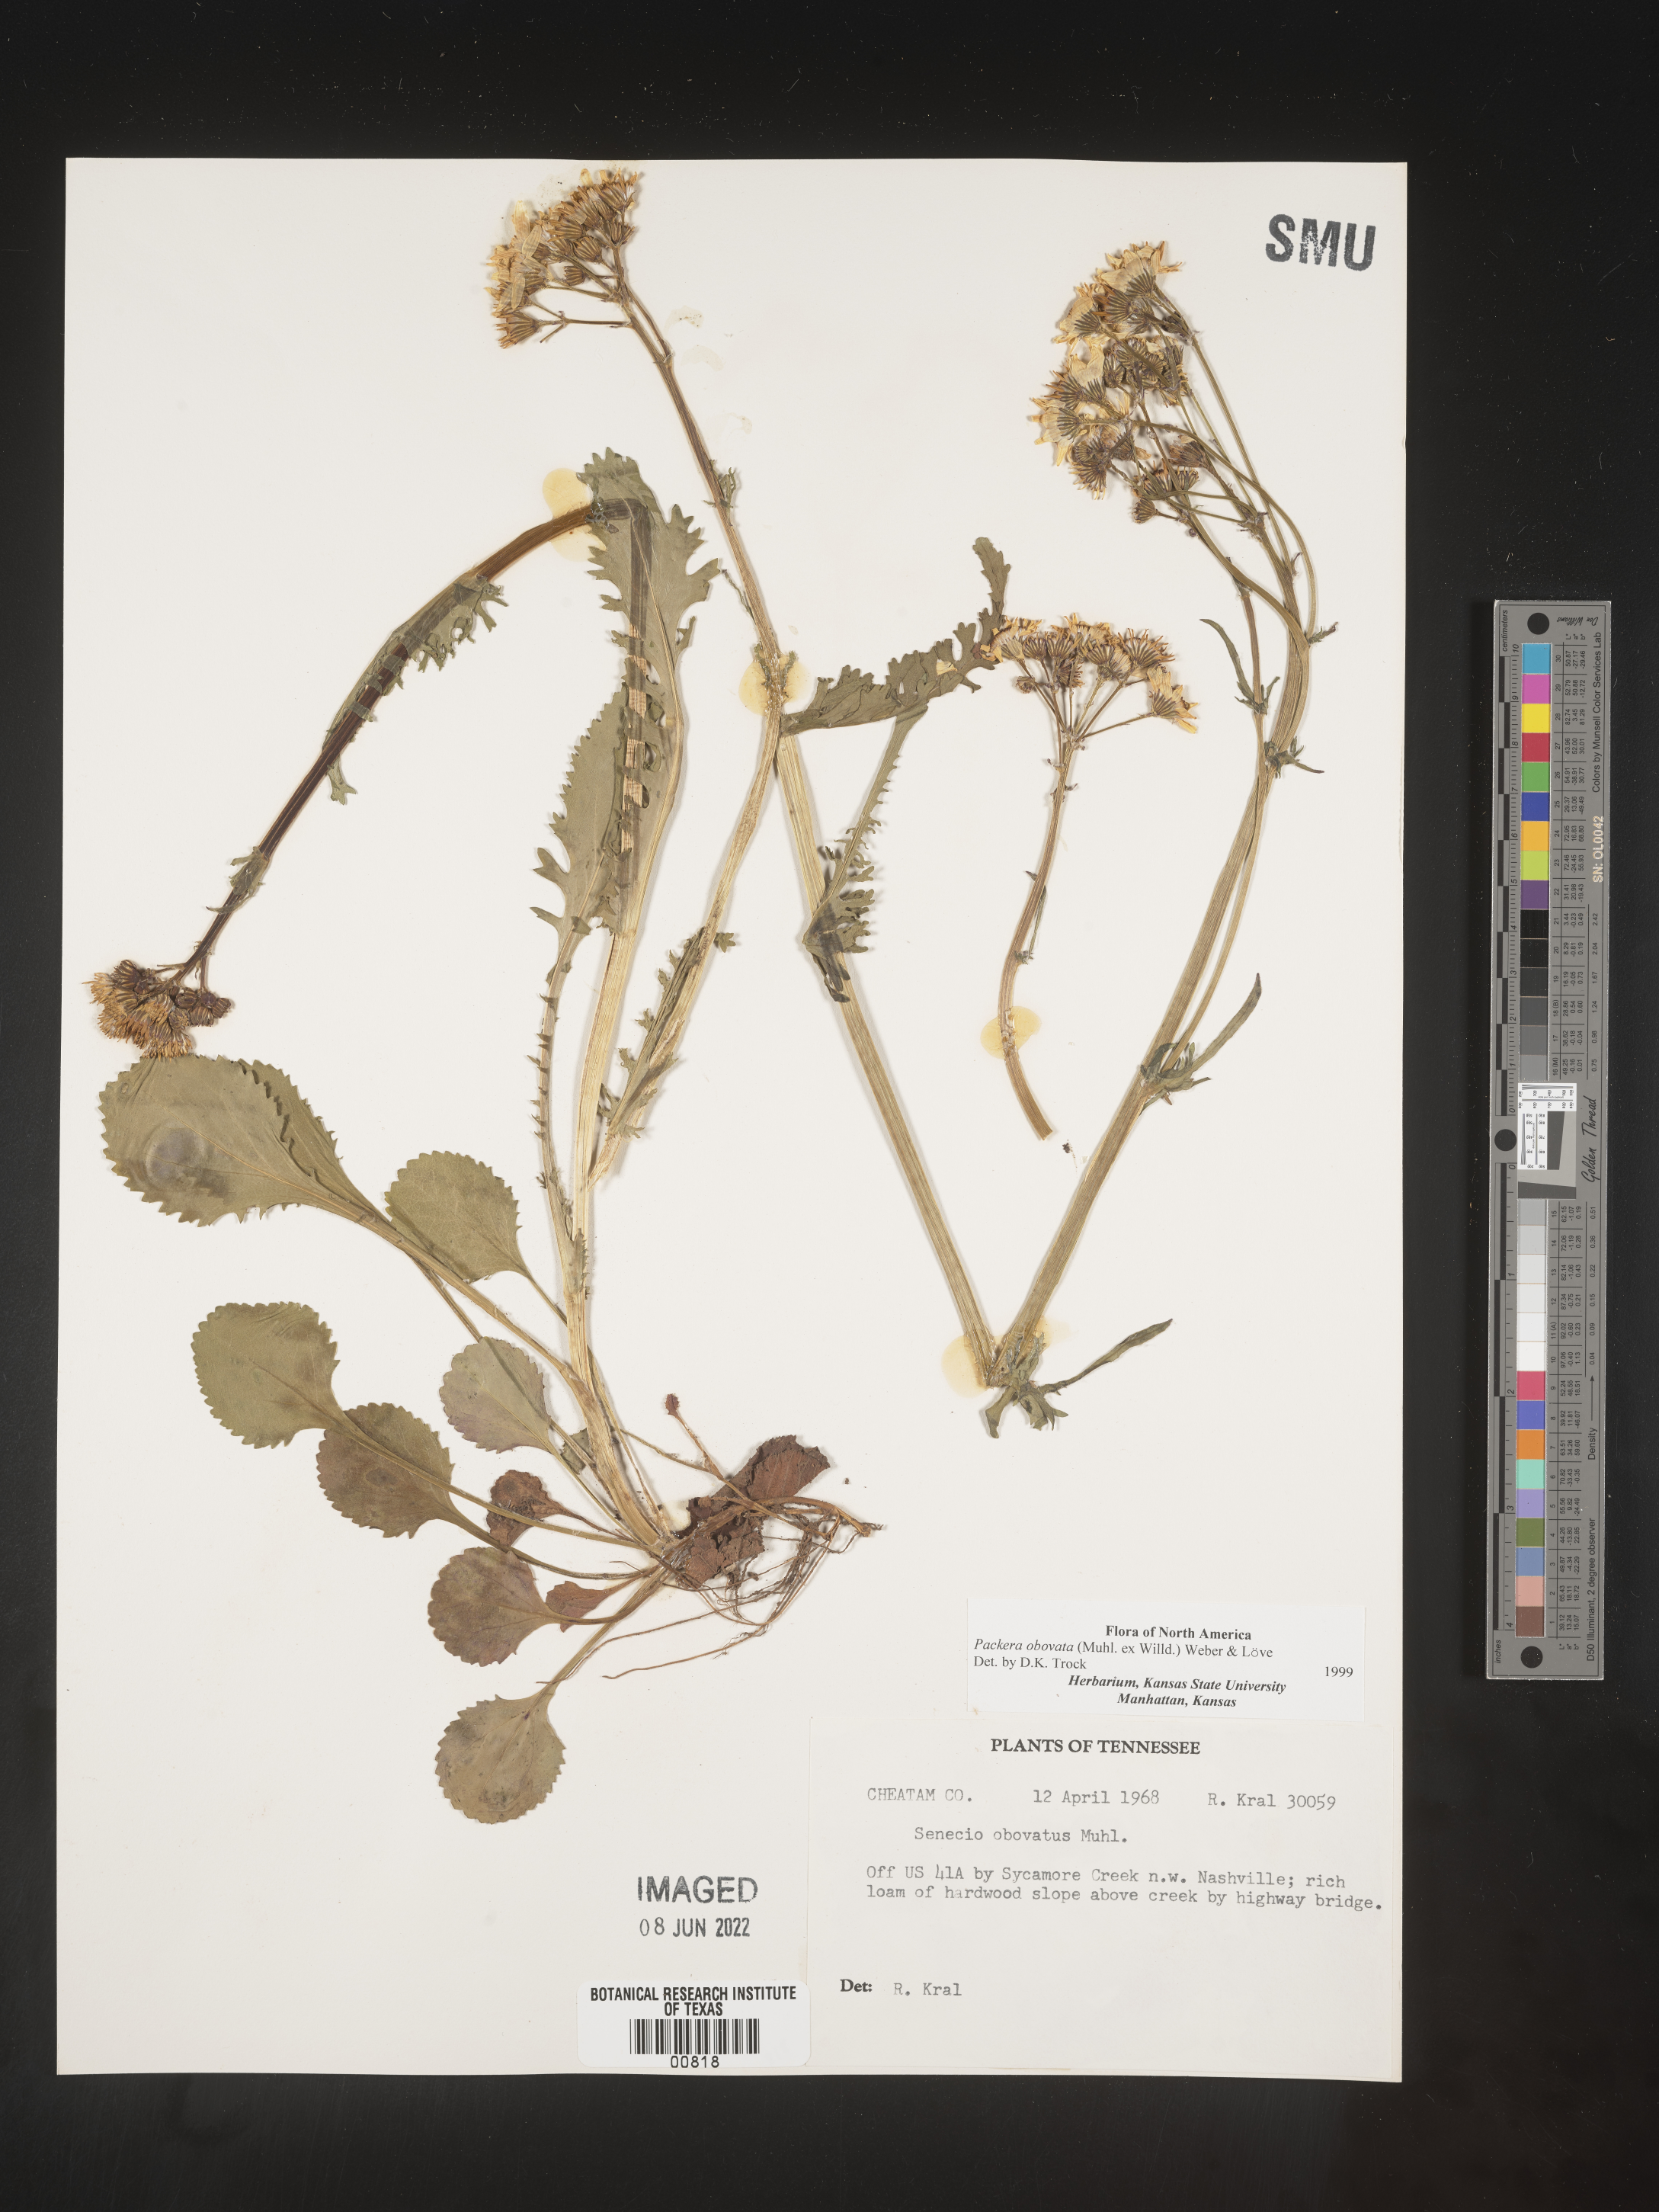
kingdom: Plantae
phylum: Tracheophyta
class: Magnoliopsida
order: Asterales
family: Asteraceae
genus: Packera
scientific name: Packera obovata
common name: Round-leaf ragwort
